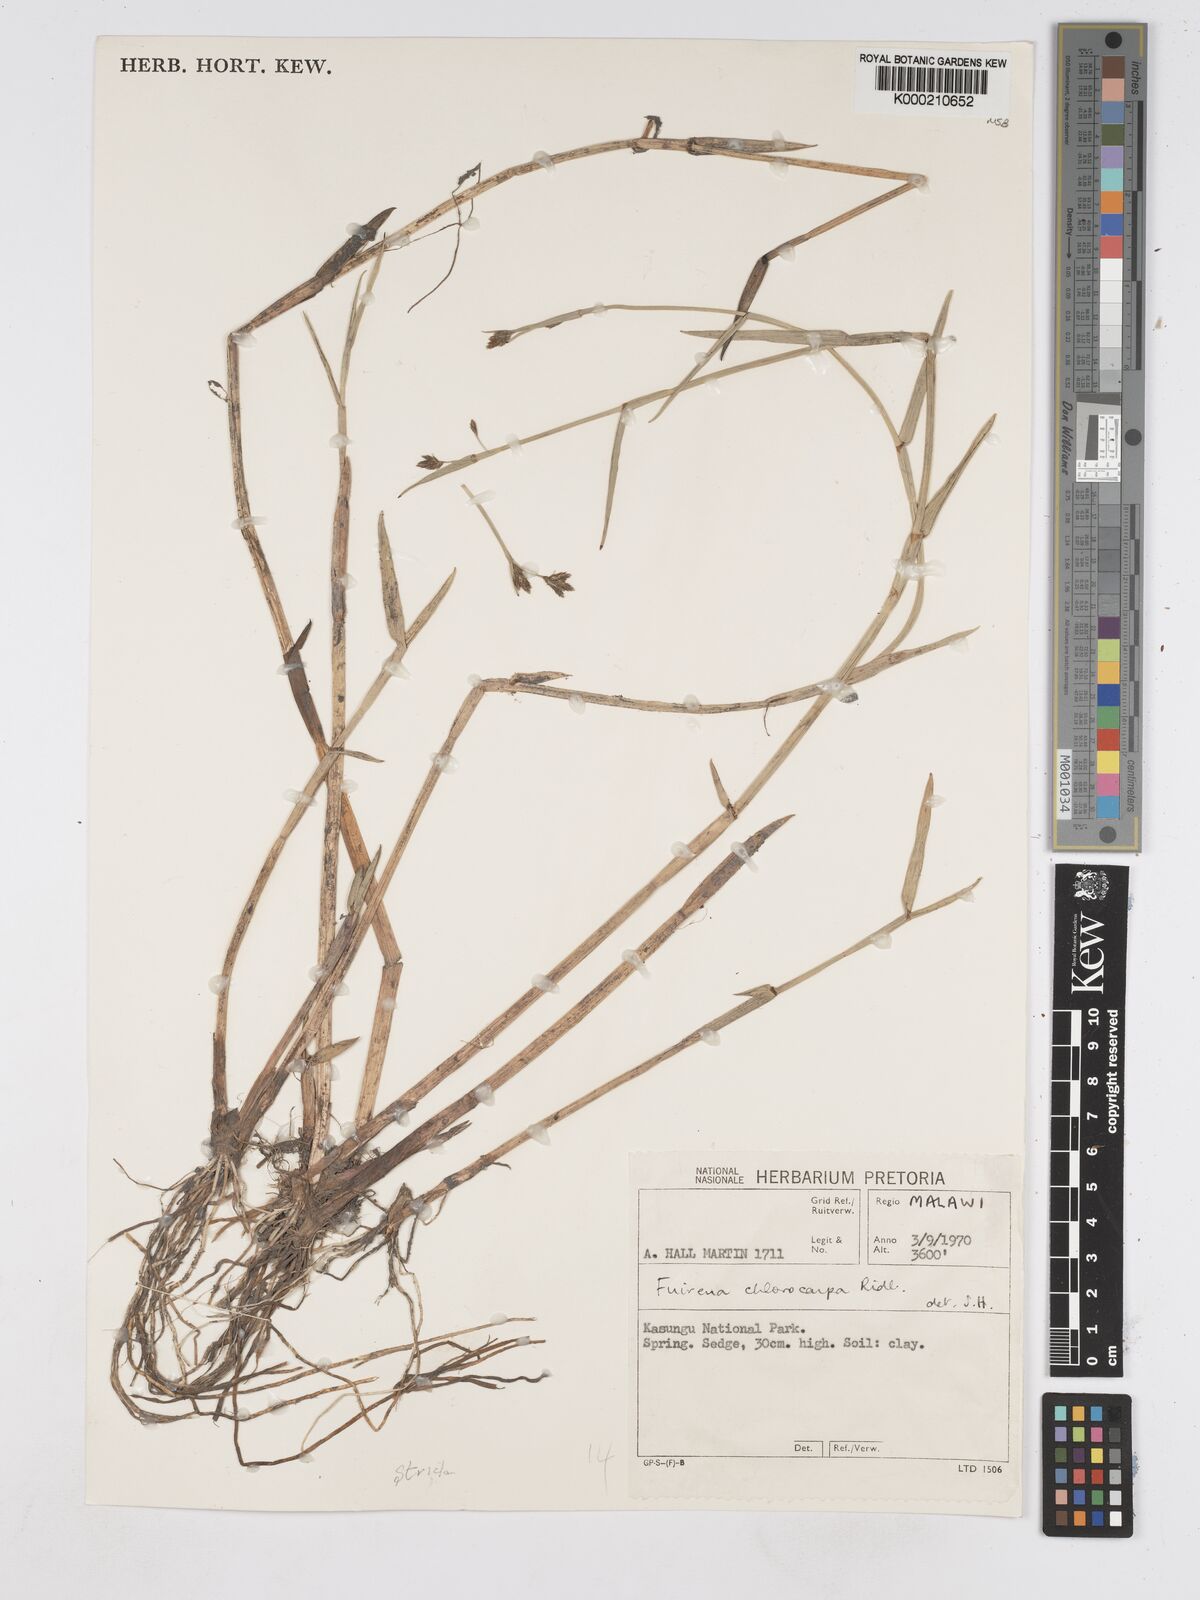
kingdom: Plantae
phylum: Tracheophyta
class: Liliopsida
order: Poales
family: Cyperaceae
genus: Fuirena
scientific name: Fuirena nyasensis
